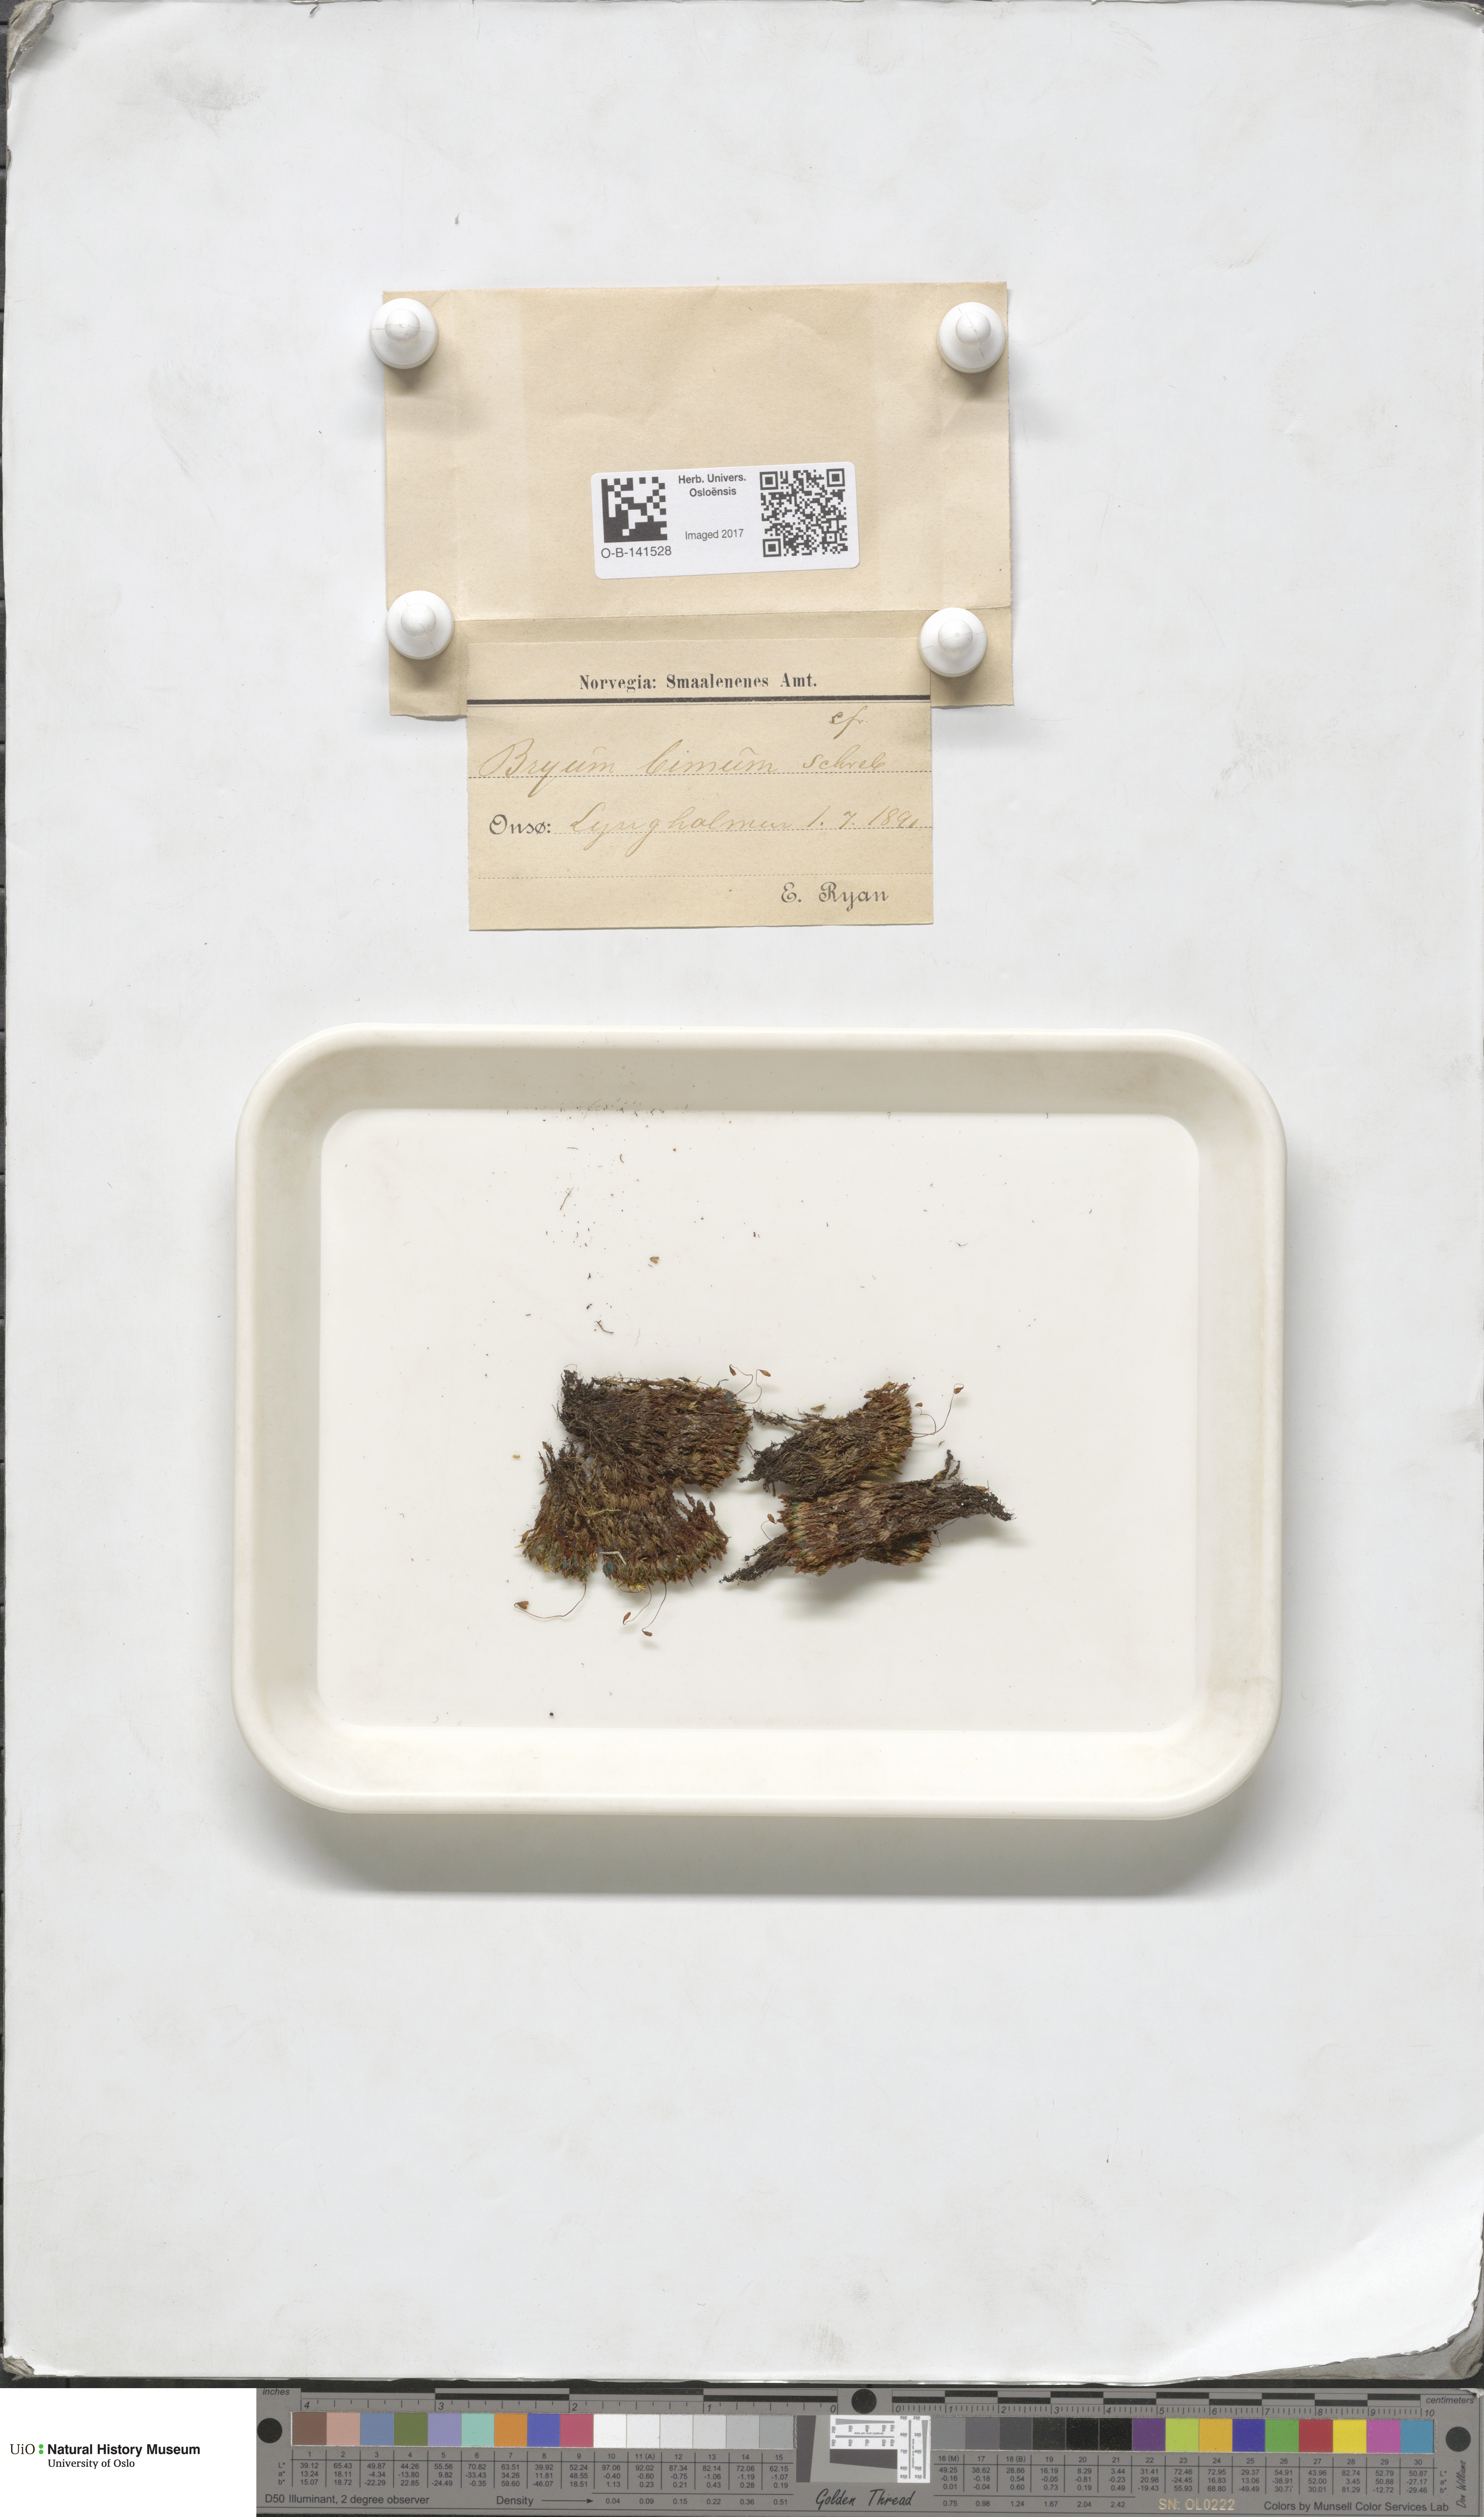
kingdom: Plantae
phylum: Bryophyta
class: Bryopsida
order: Bryales
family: Bryaceae
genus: Ptychostomum
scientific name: Ptychostomum bimum
